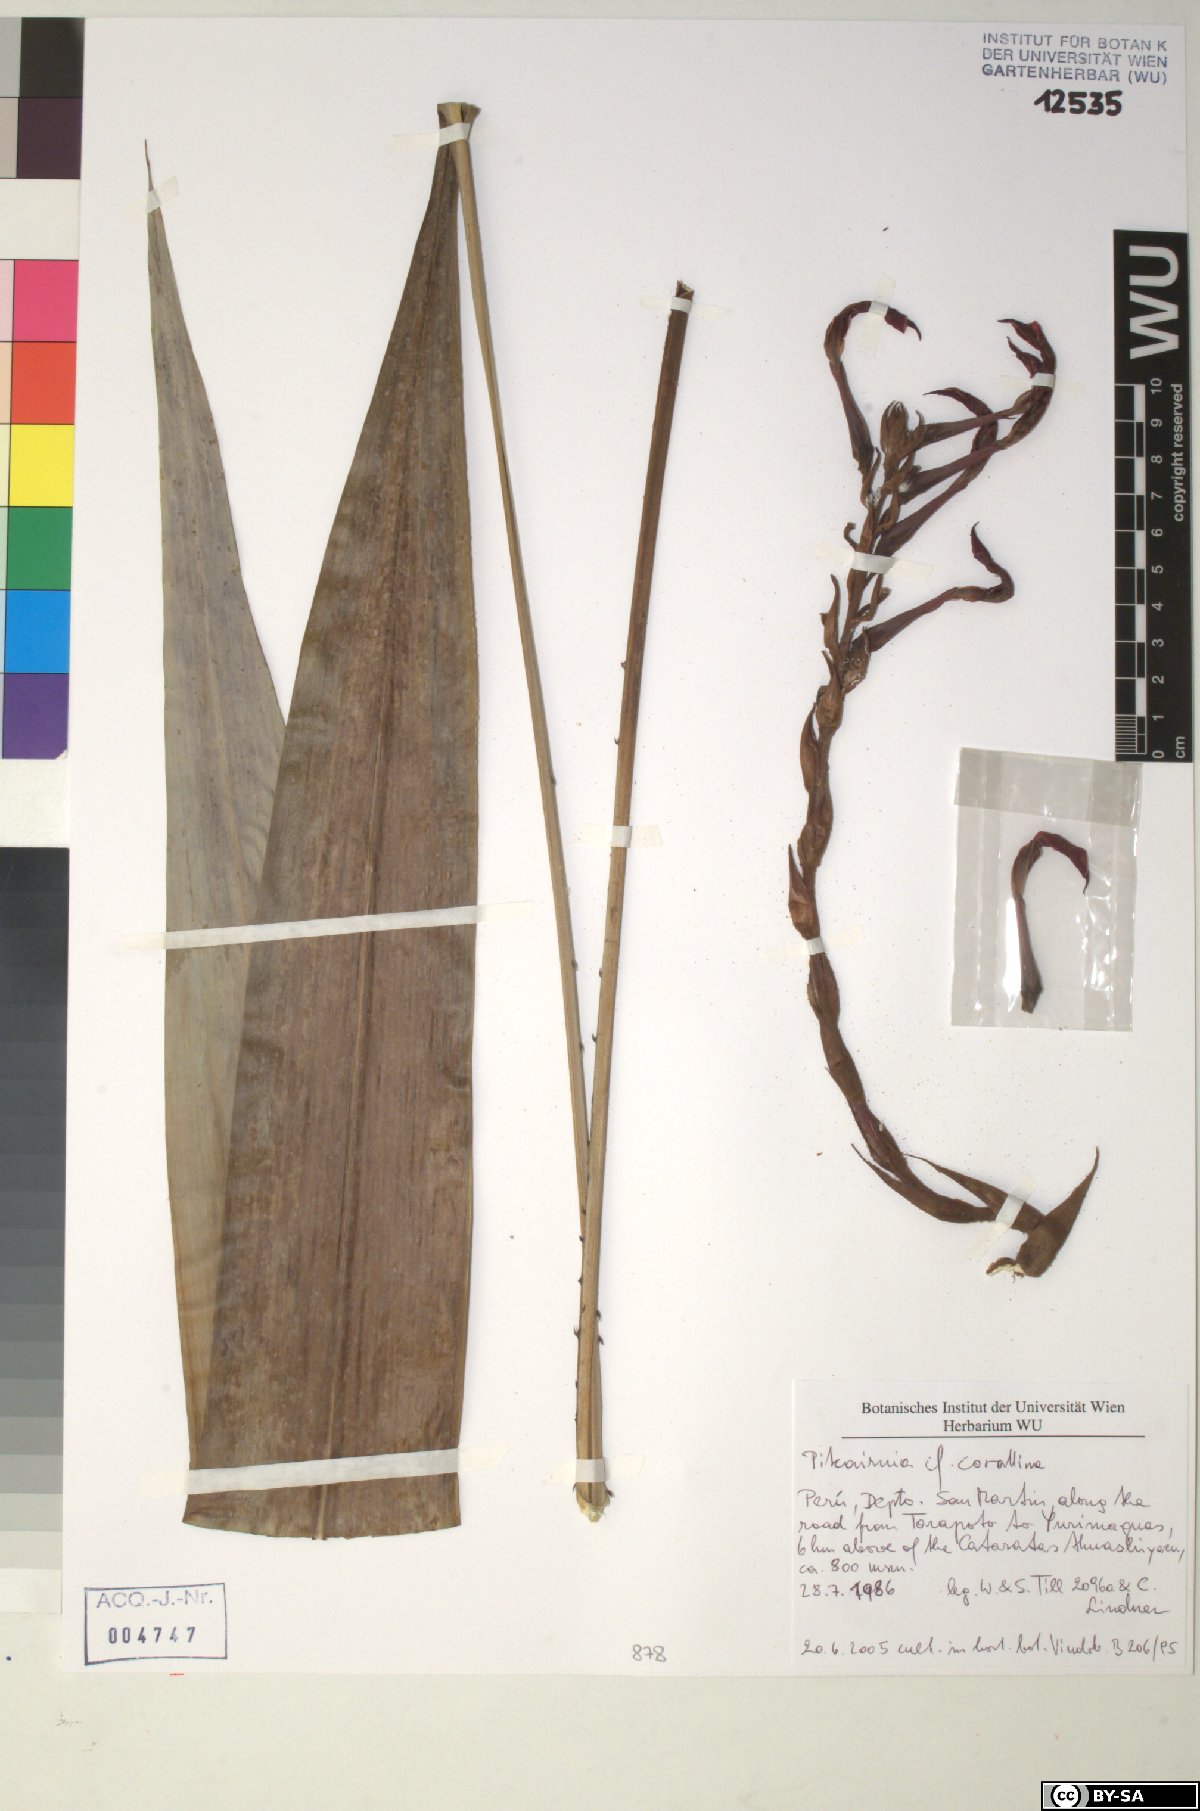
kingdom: Plantae
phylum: Tracheophyta
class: Liliopsida
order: Poales
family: Bromeliaceae
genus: Pitcairnia
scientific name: Pitcairnia corallina
